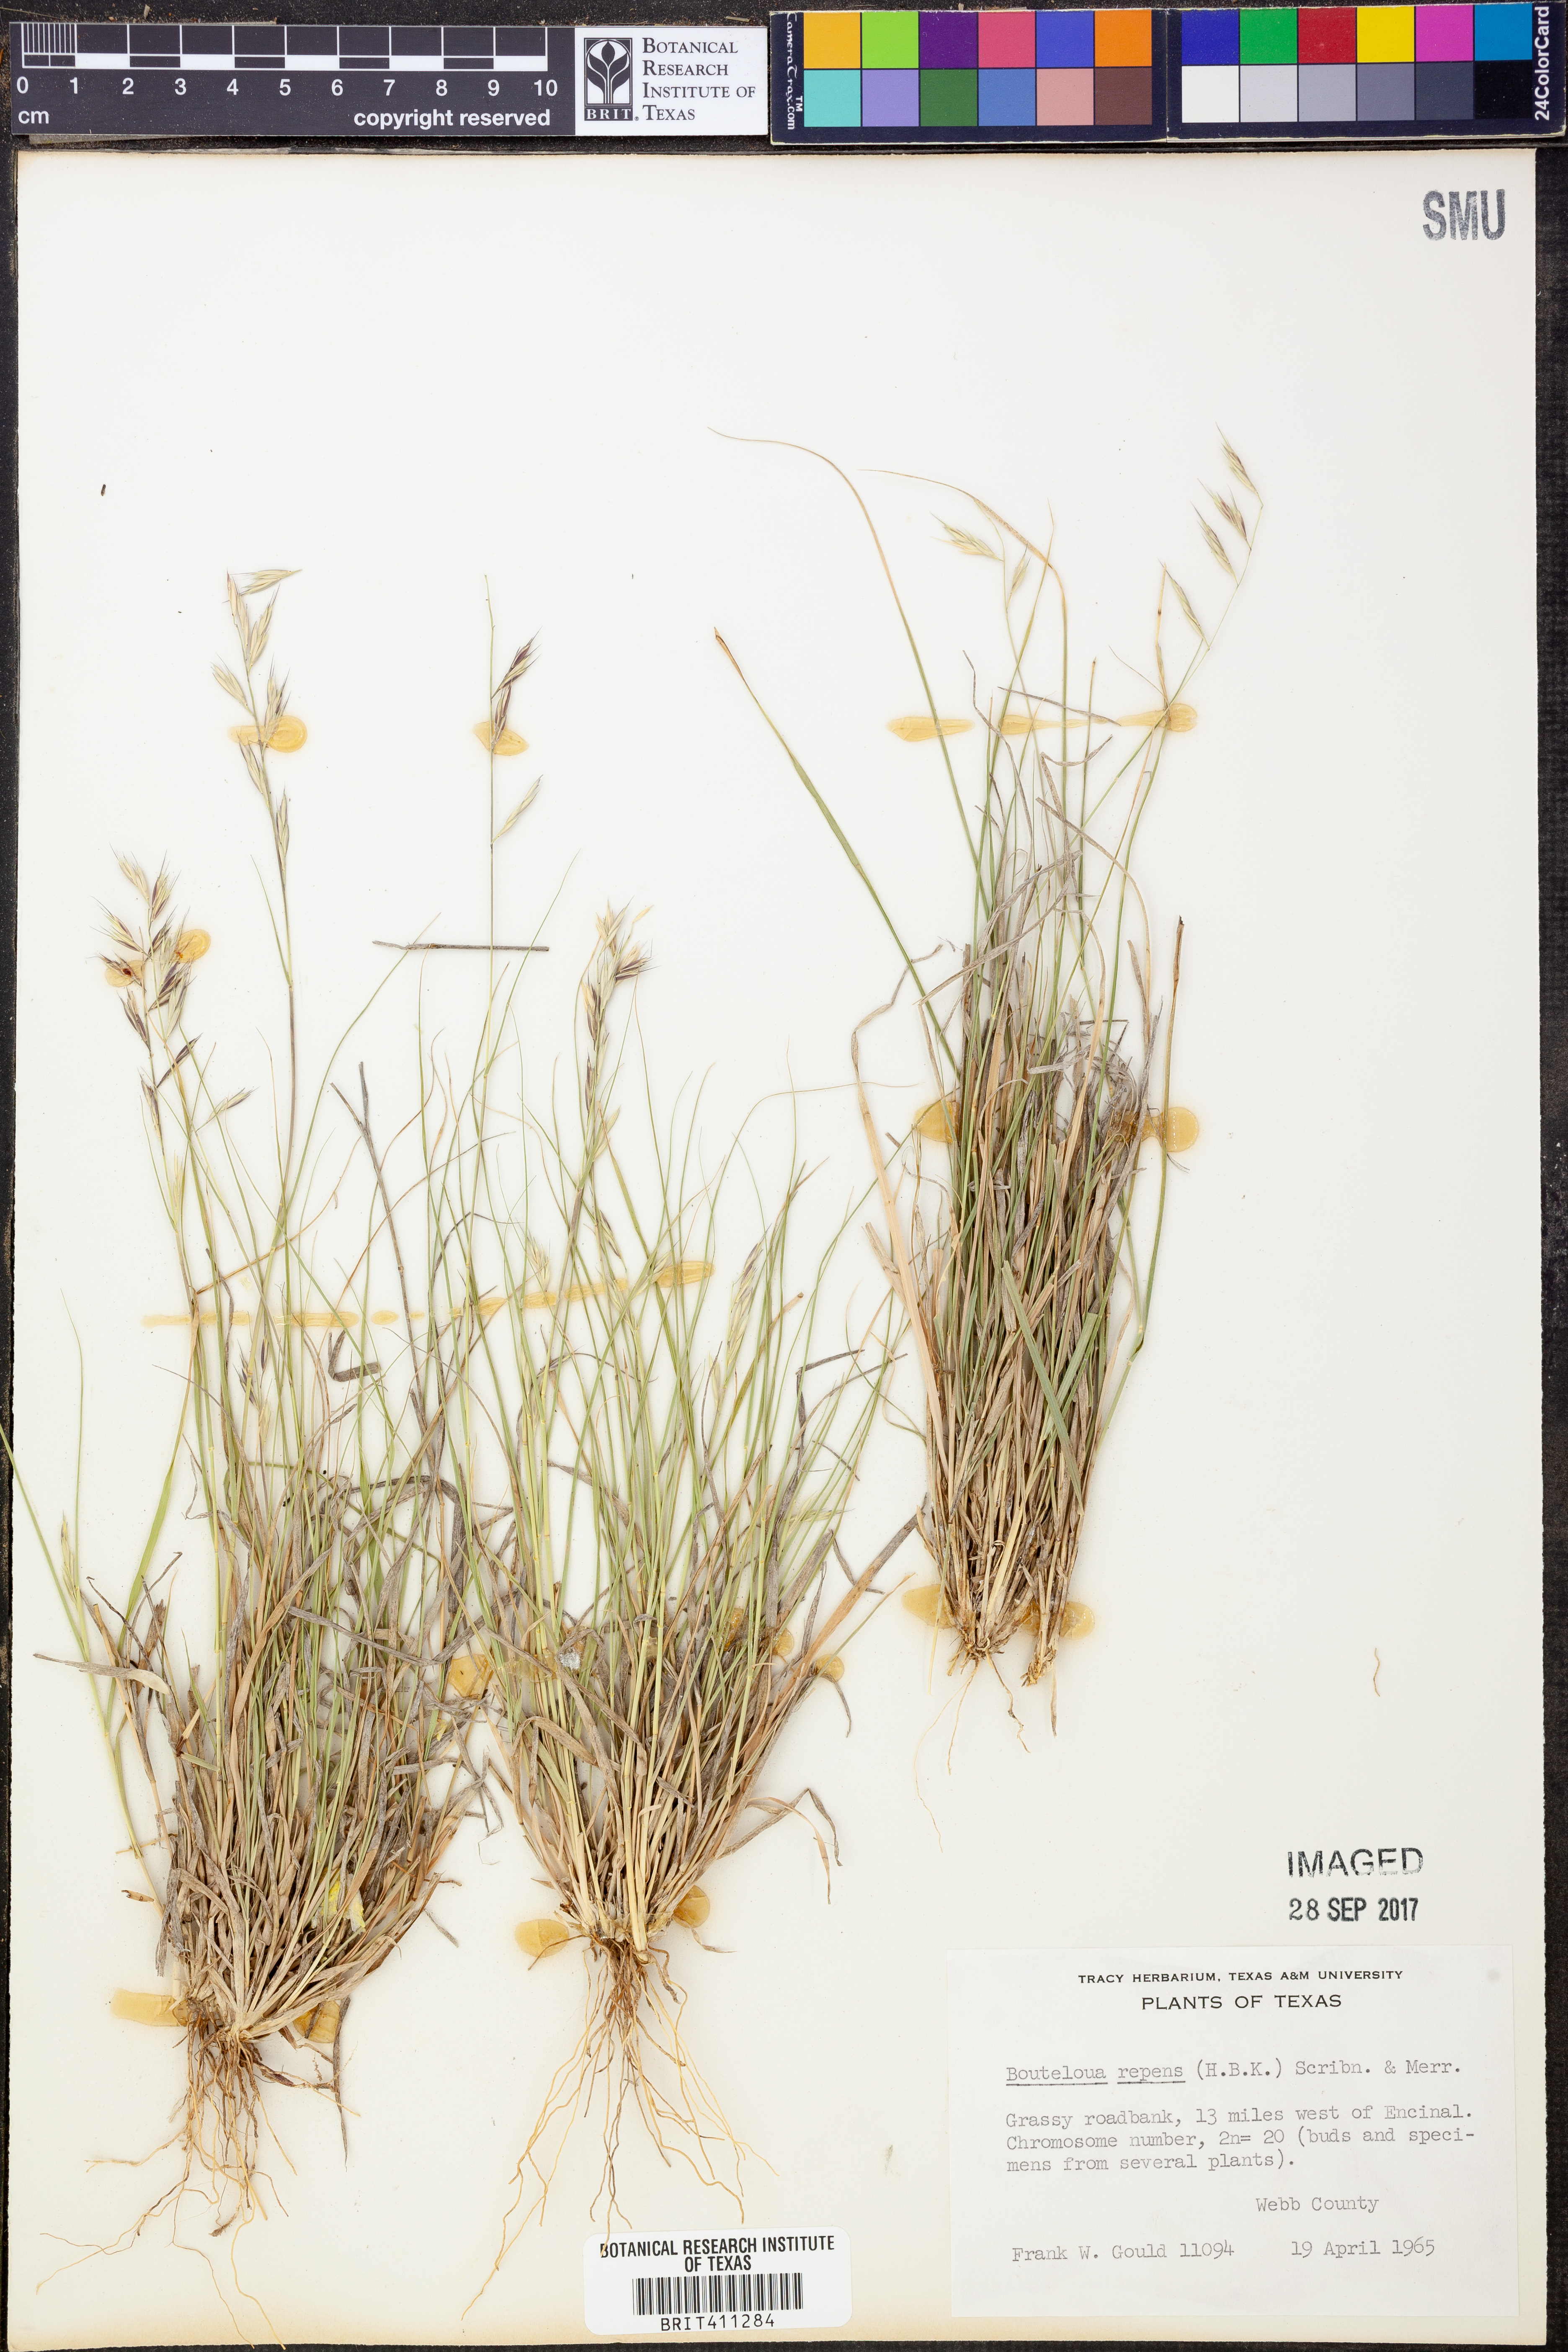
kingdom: Plantae
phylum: Tracheophyta
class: Liliopsida
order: Poales
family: Poaceae
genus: Bouteloua
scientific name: Bouteloua repens
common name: Slender grama
